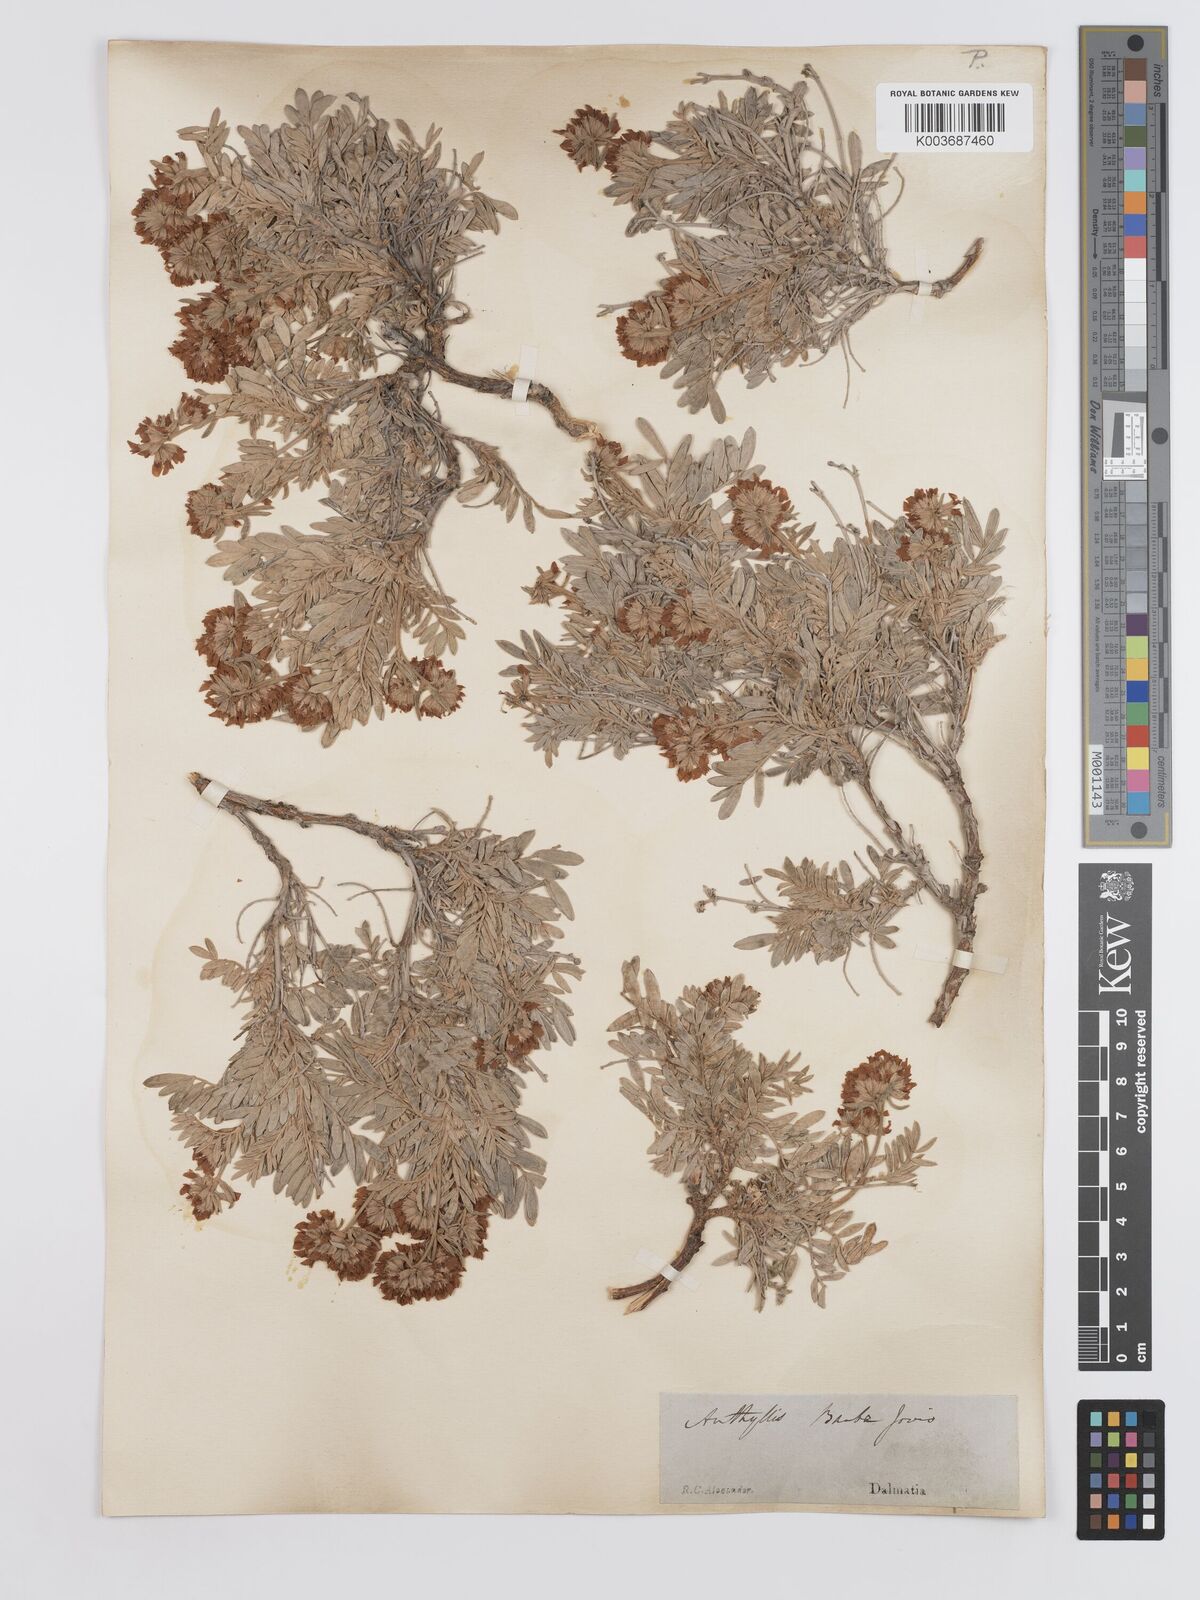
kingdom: Plantae
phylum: Tracheophyta
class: Magnoliopsida
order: Fabales
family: Fabaceae
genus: Anthyllis
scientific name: Anthyllis barba-jovis
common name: Jupiter's-beard
